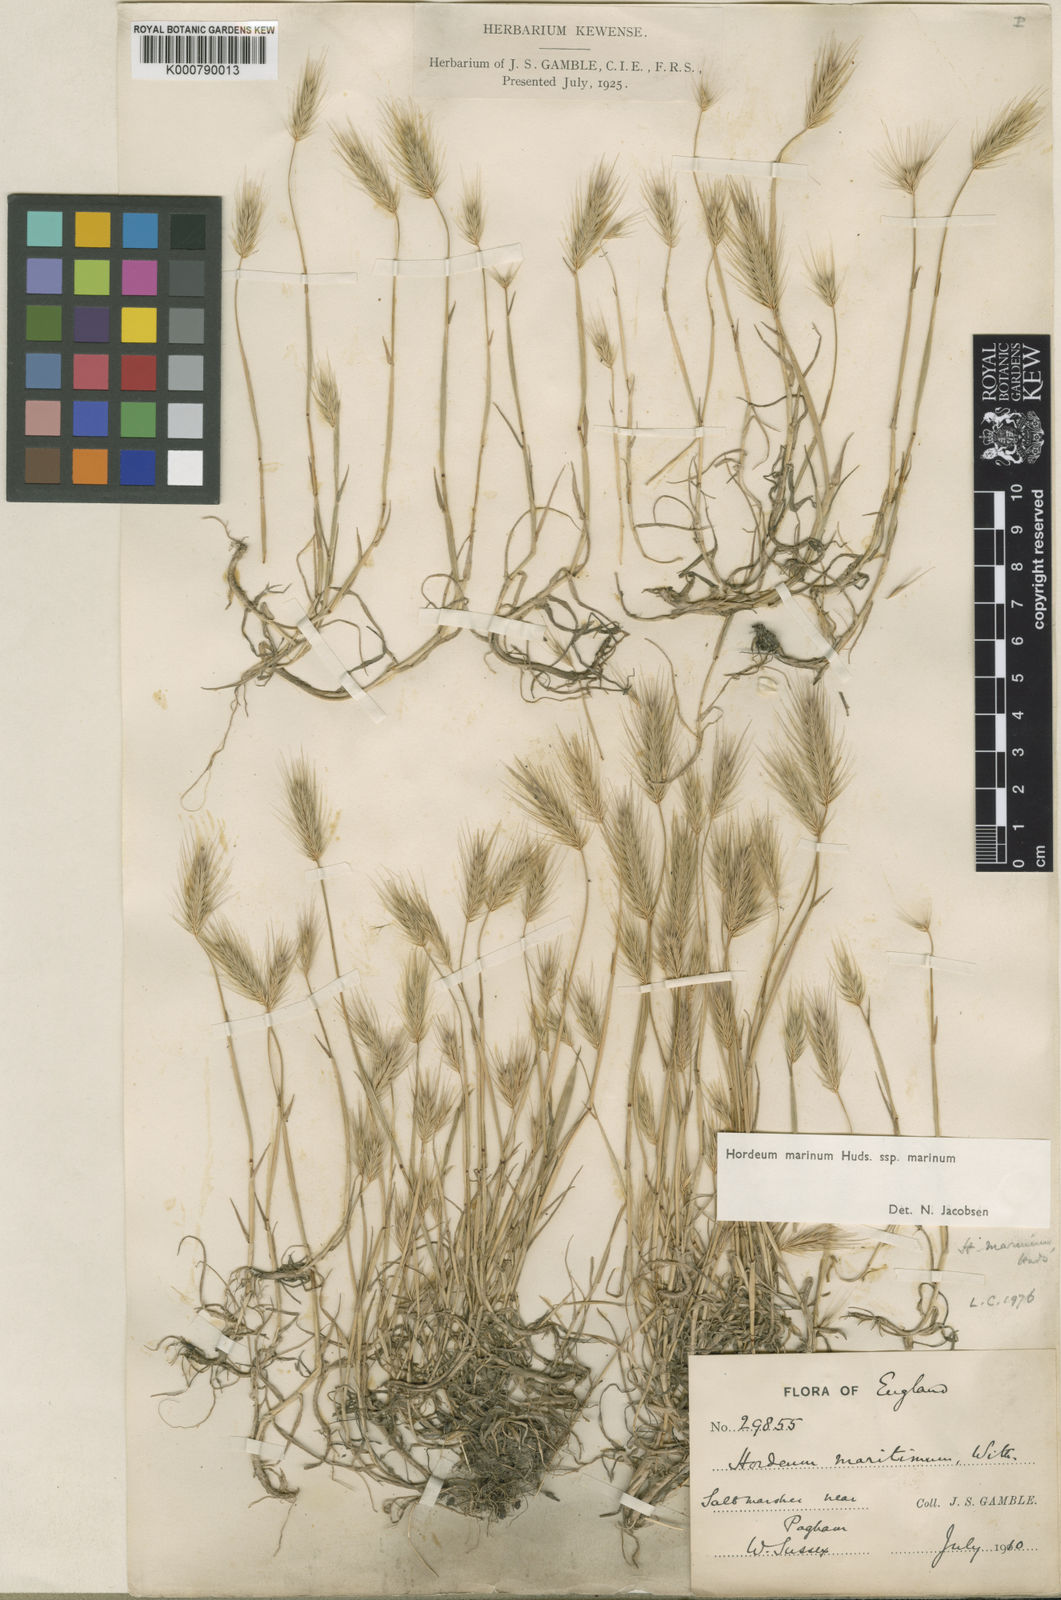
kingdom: Plantae
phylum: Tracheophyta
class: Liliopsida
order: Poales
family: Poaceae
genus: Hordeum
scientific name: Hordeum marinum
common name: Sea barley
